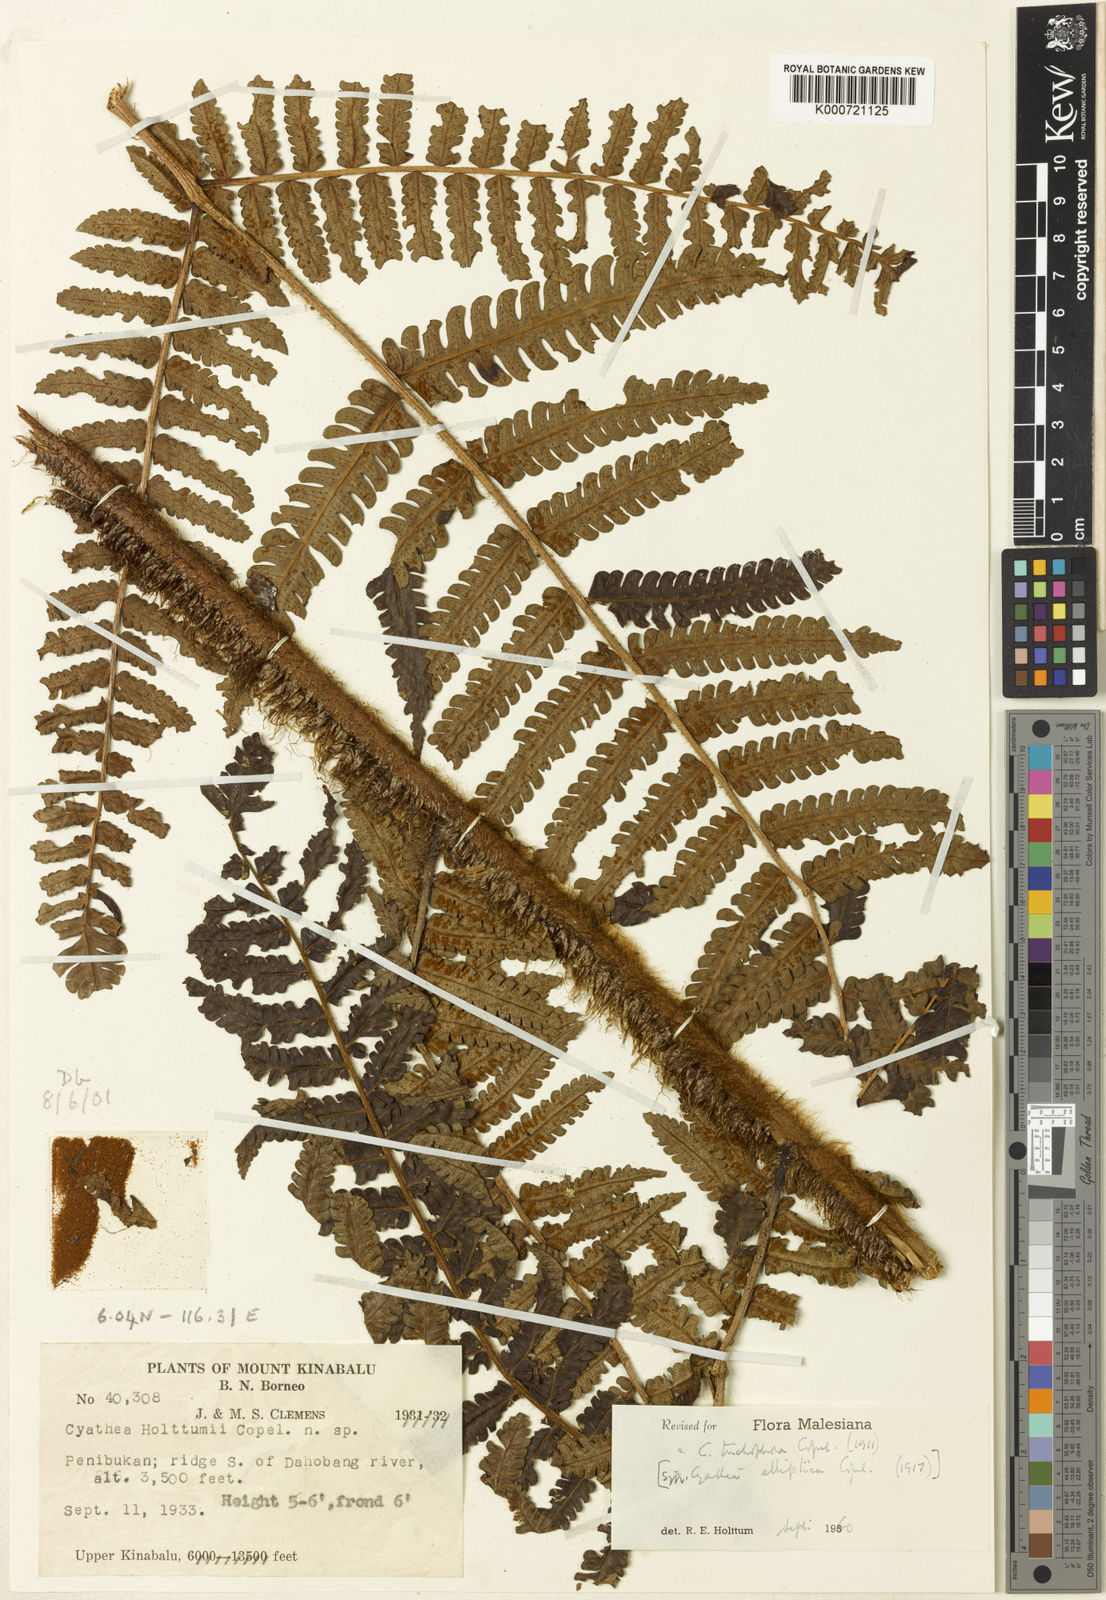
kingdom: Plantae
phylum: Tracheophyta
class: Polypodiopsida
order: Cyatheales
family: Cyatheaceae
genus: Sphaeropteris
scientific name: Sphaeropteris trichophora
